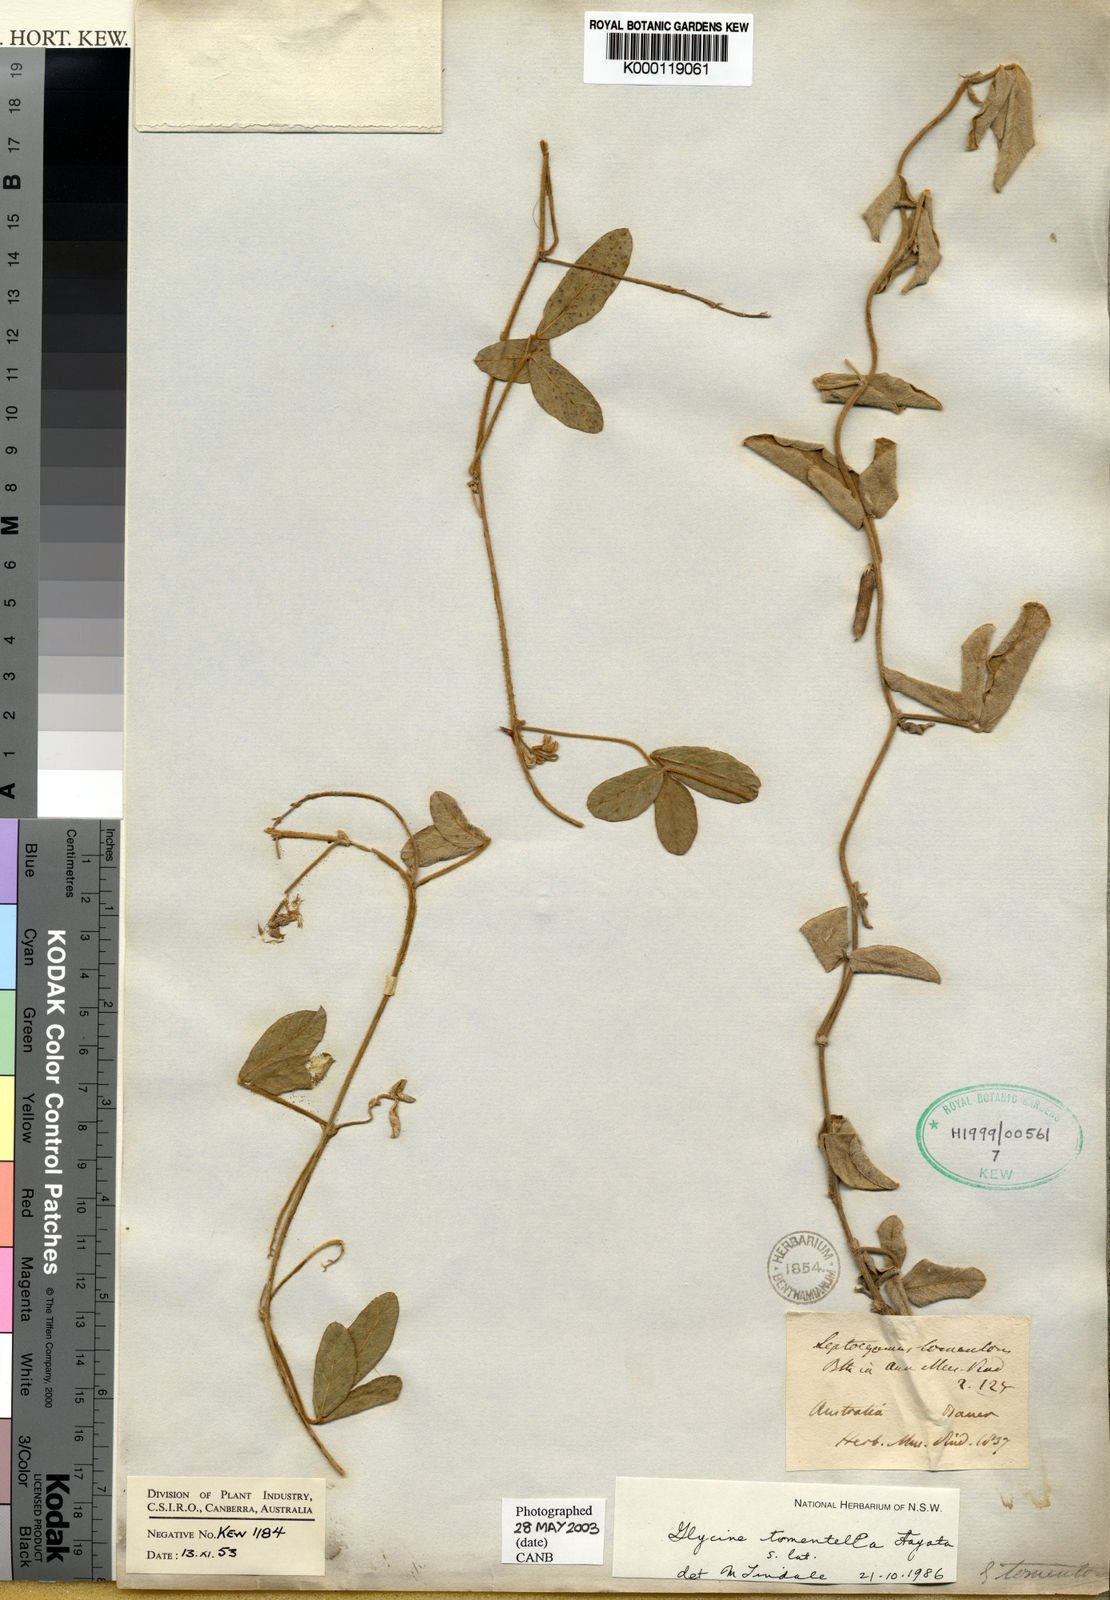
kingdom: Plantae
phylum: Tracheophyta
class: Magnoliopsida
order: Fabales
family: Fabaceae
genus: Glycine
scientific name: Glycine tomentella
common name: Hairy glycine
